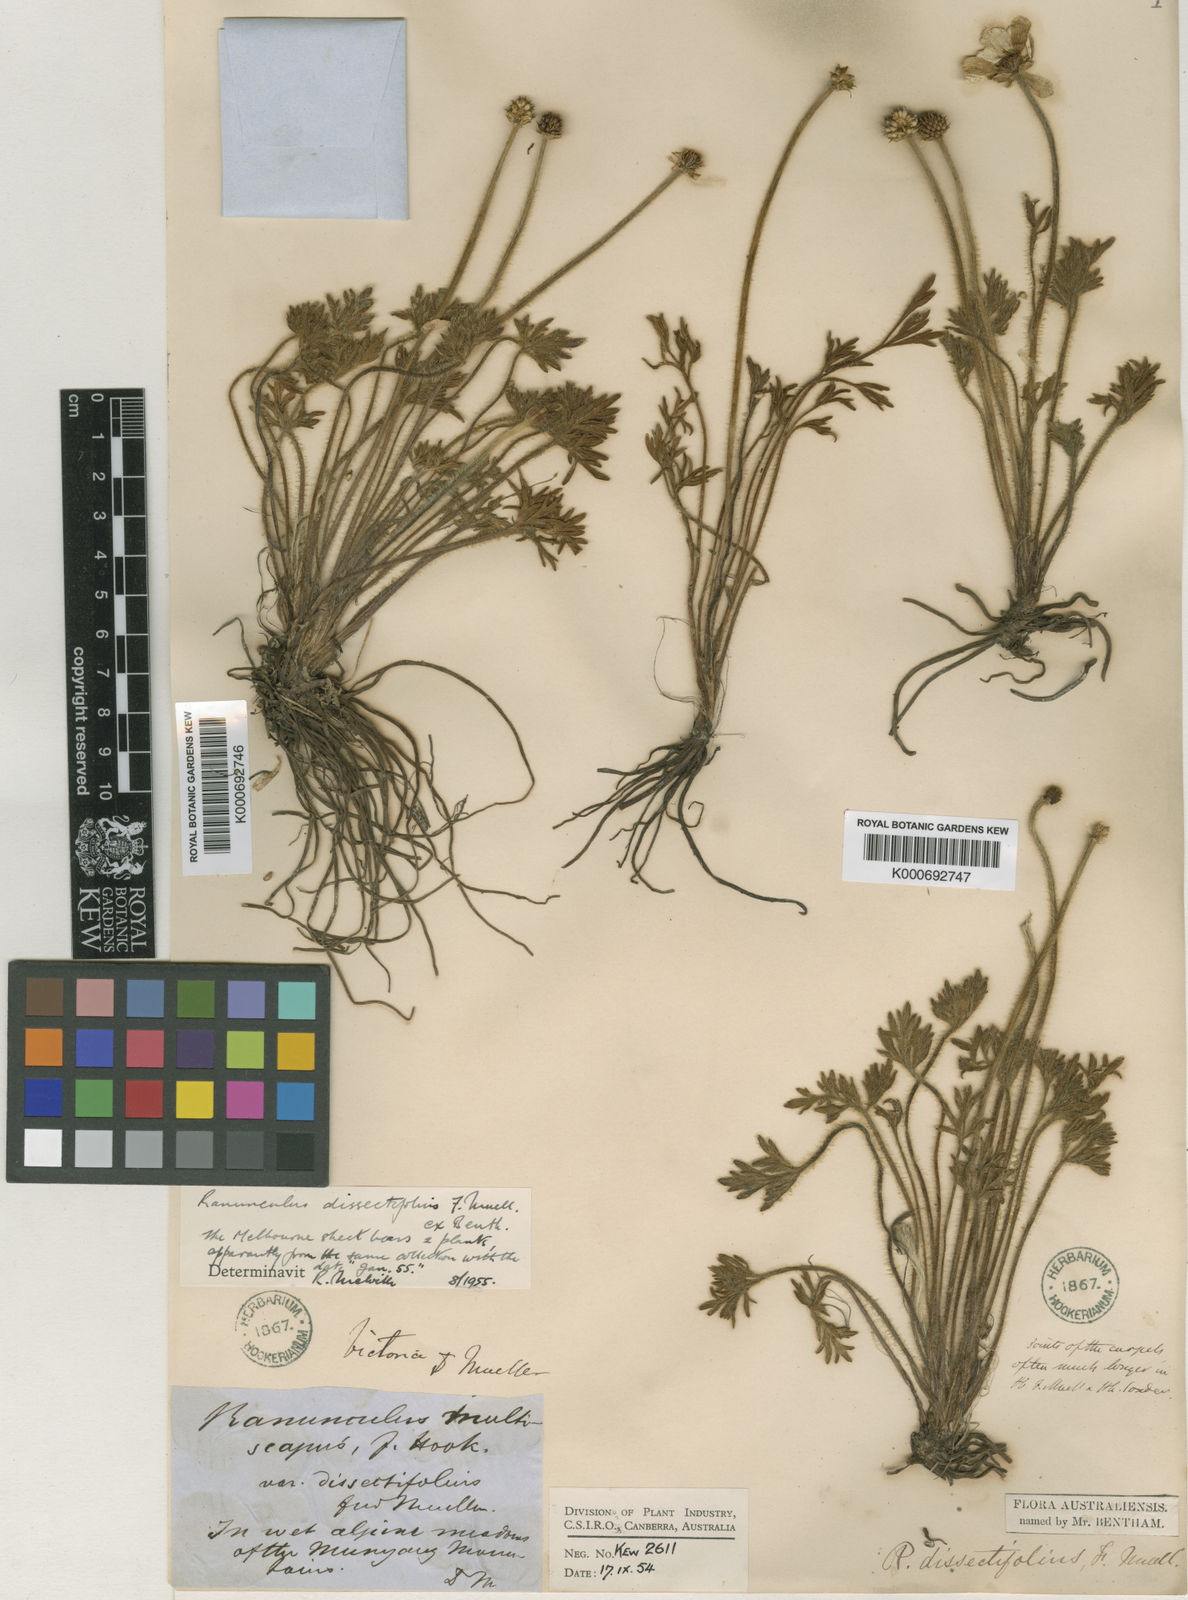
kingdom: Plantae
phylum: Tracheophyta
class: Magnoliopsida
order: Ranunculales
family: Ranunculaceae
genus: Ranunculus
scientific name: Ranunculus dissectifolius
